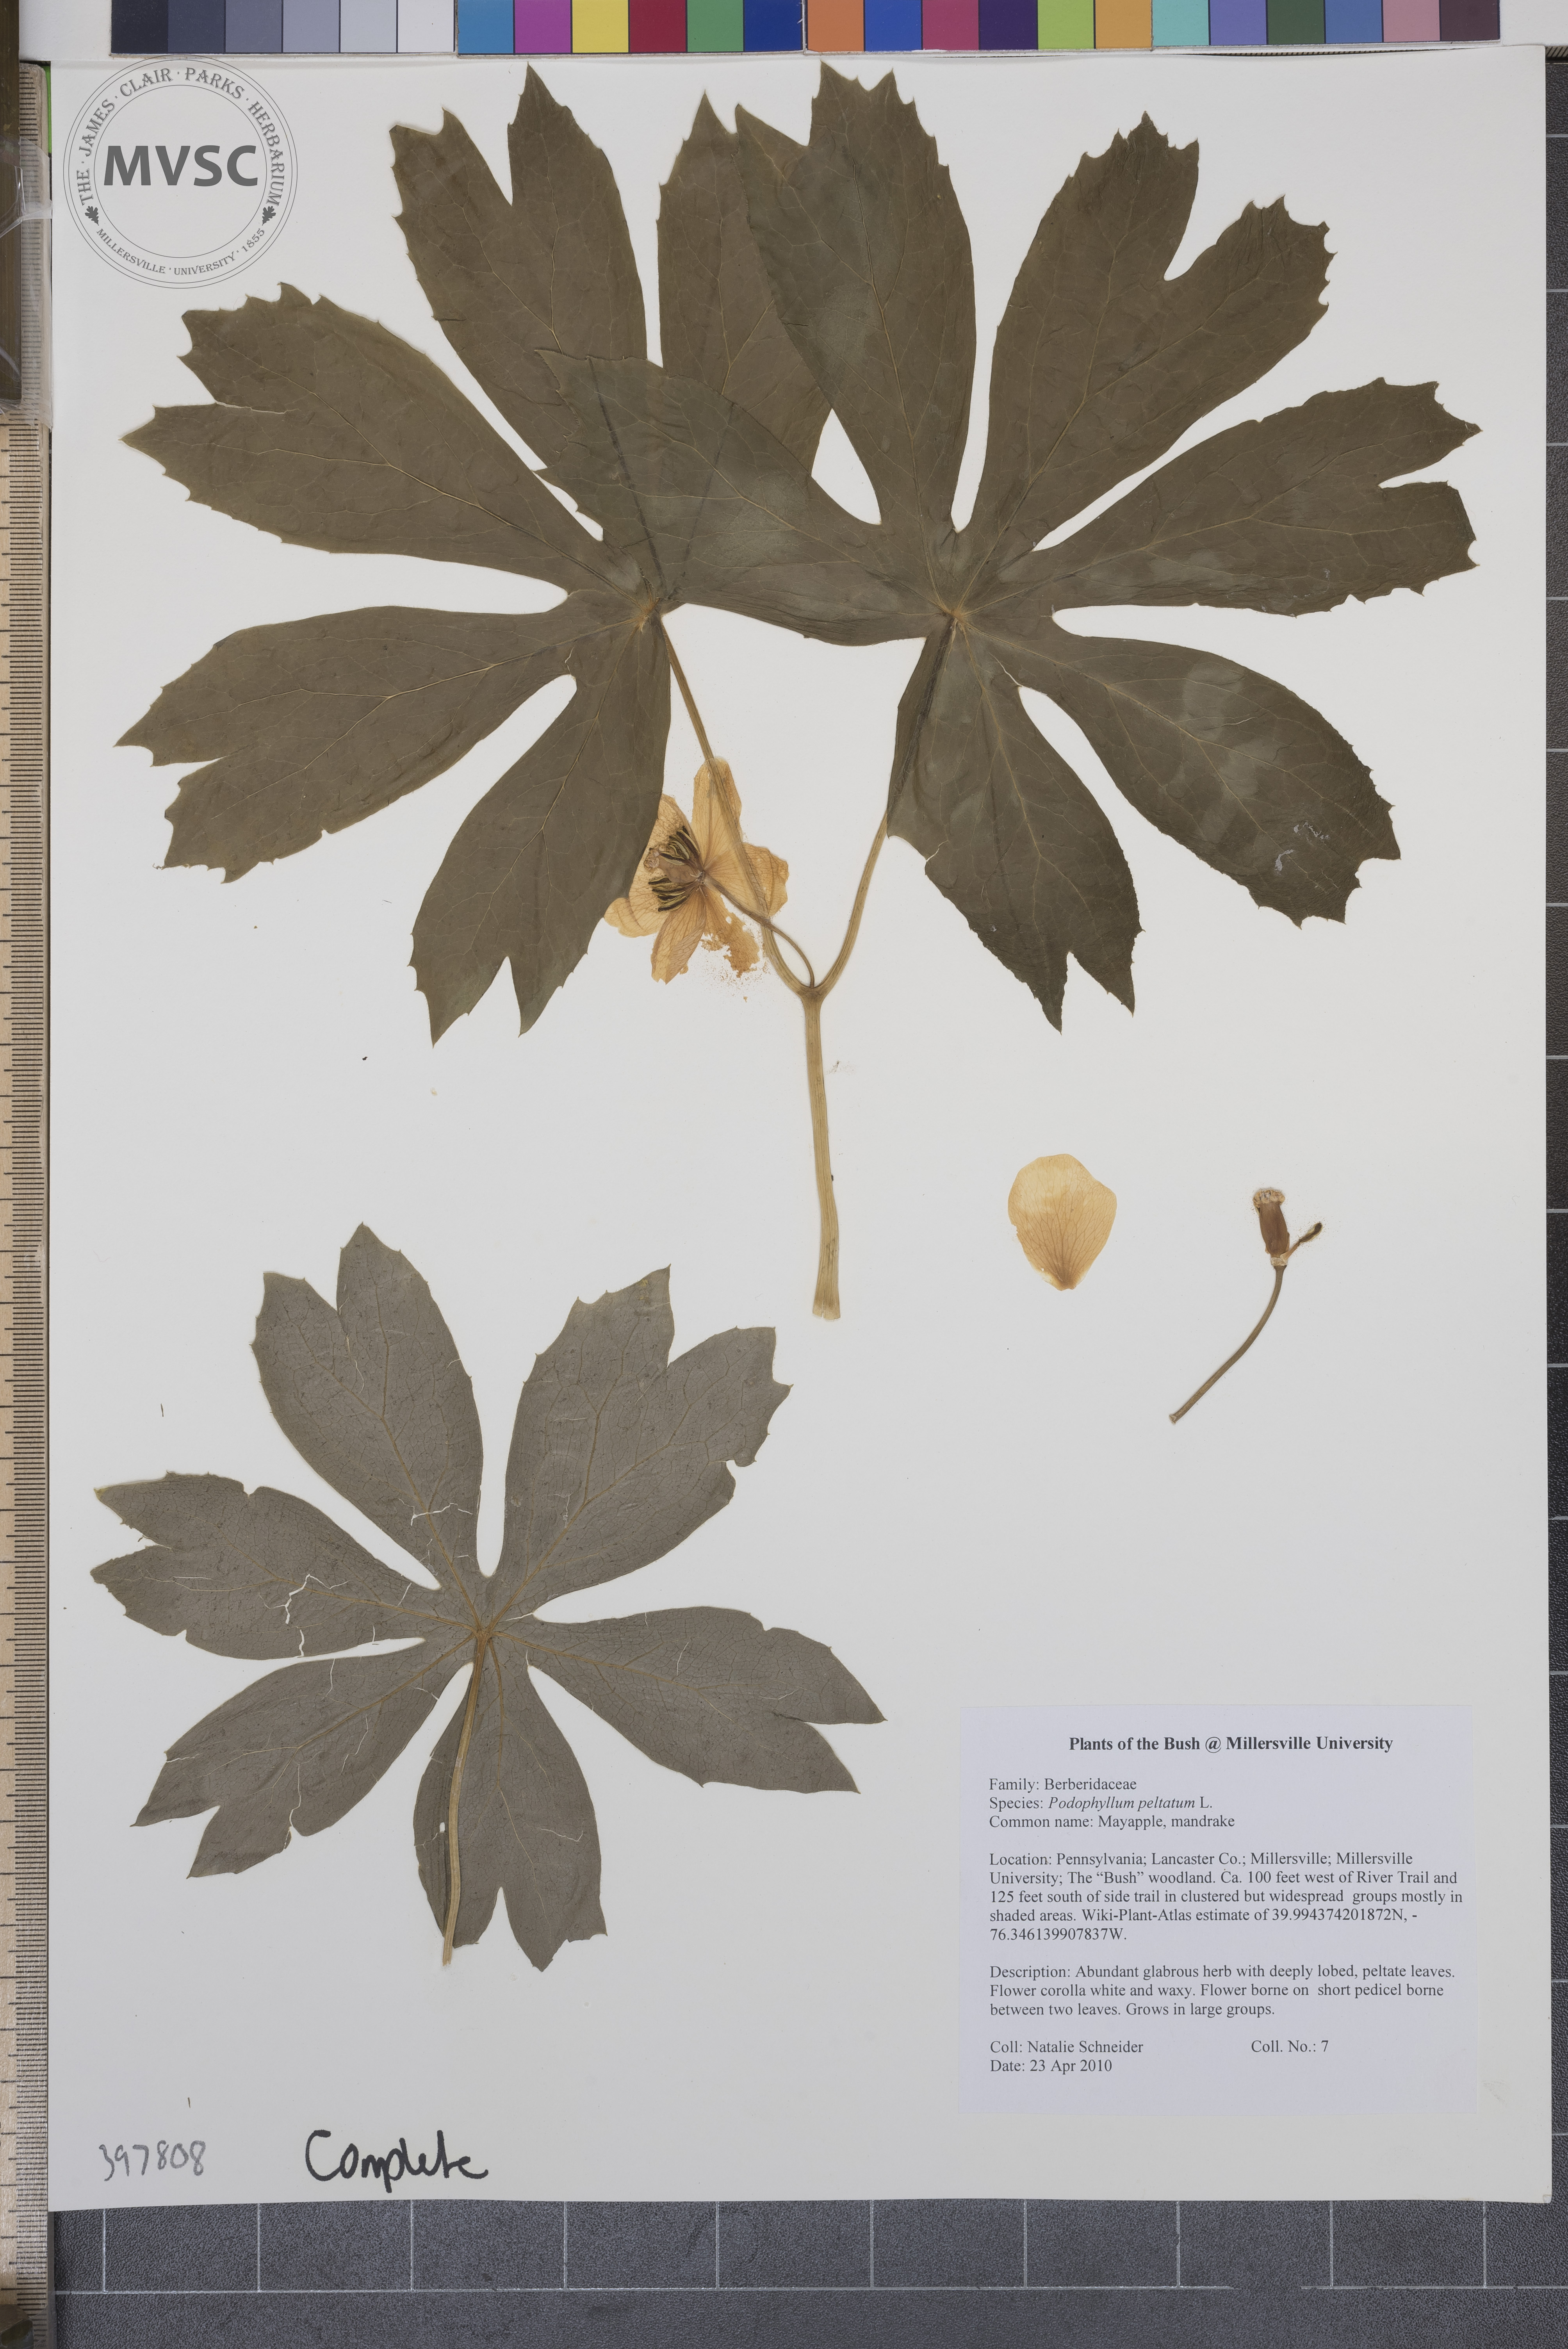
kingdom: Plantae
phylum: Tracheophyta
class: Magnoliopsida
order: Ranunculales
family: Berberidaceae
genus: Podophyllum
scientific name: Podophyllum peltatum
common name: Mayapple
